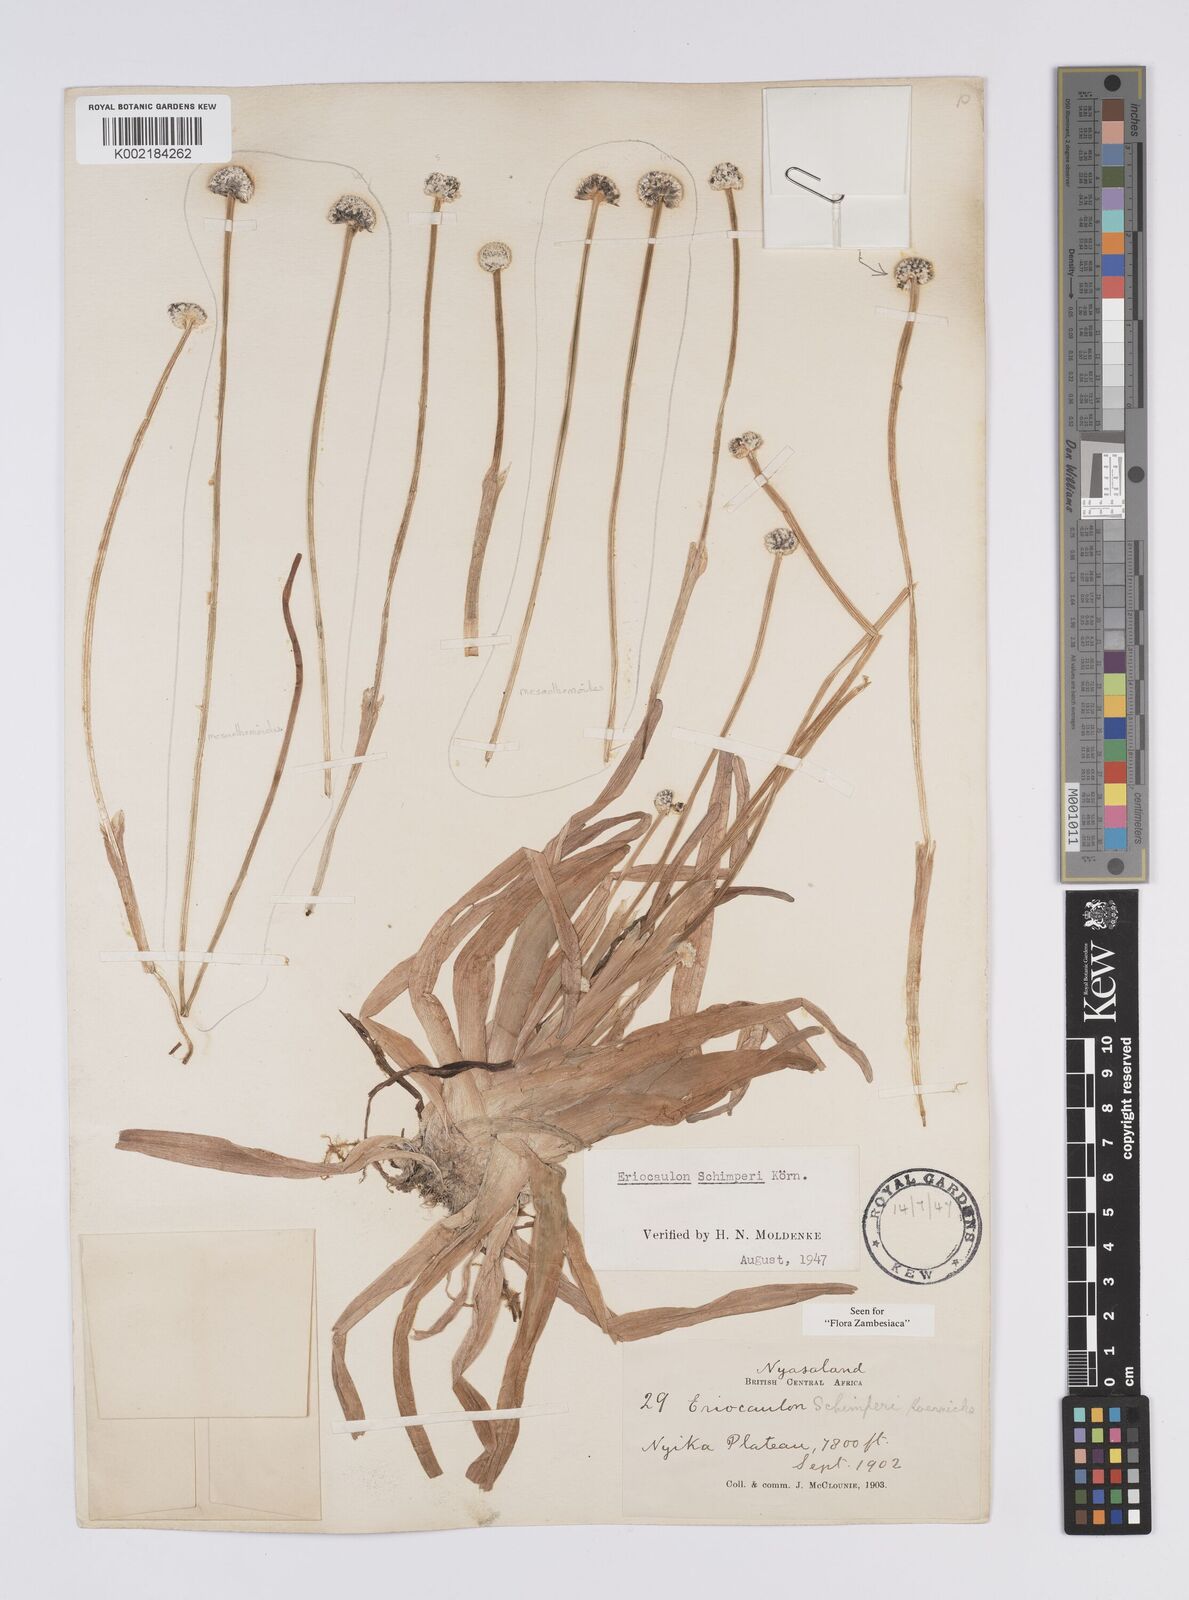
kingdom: Plantae
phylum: Tracheophyta
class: Liliopsida
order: Poales
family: Eriocaulaceae
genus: Eriocaulon
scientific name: Eriocaulon schimperi
